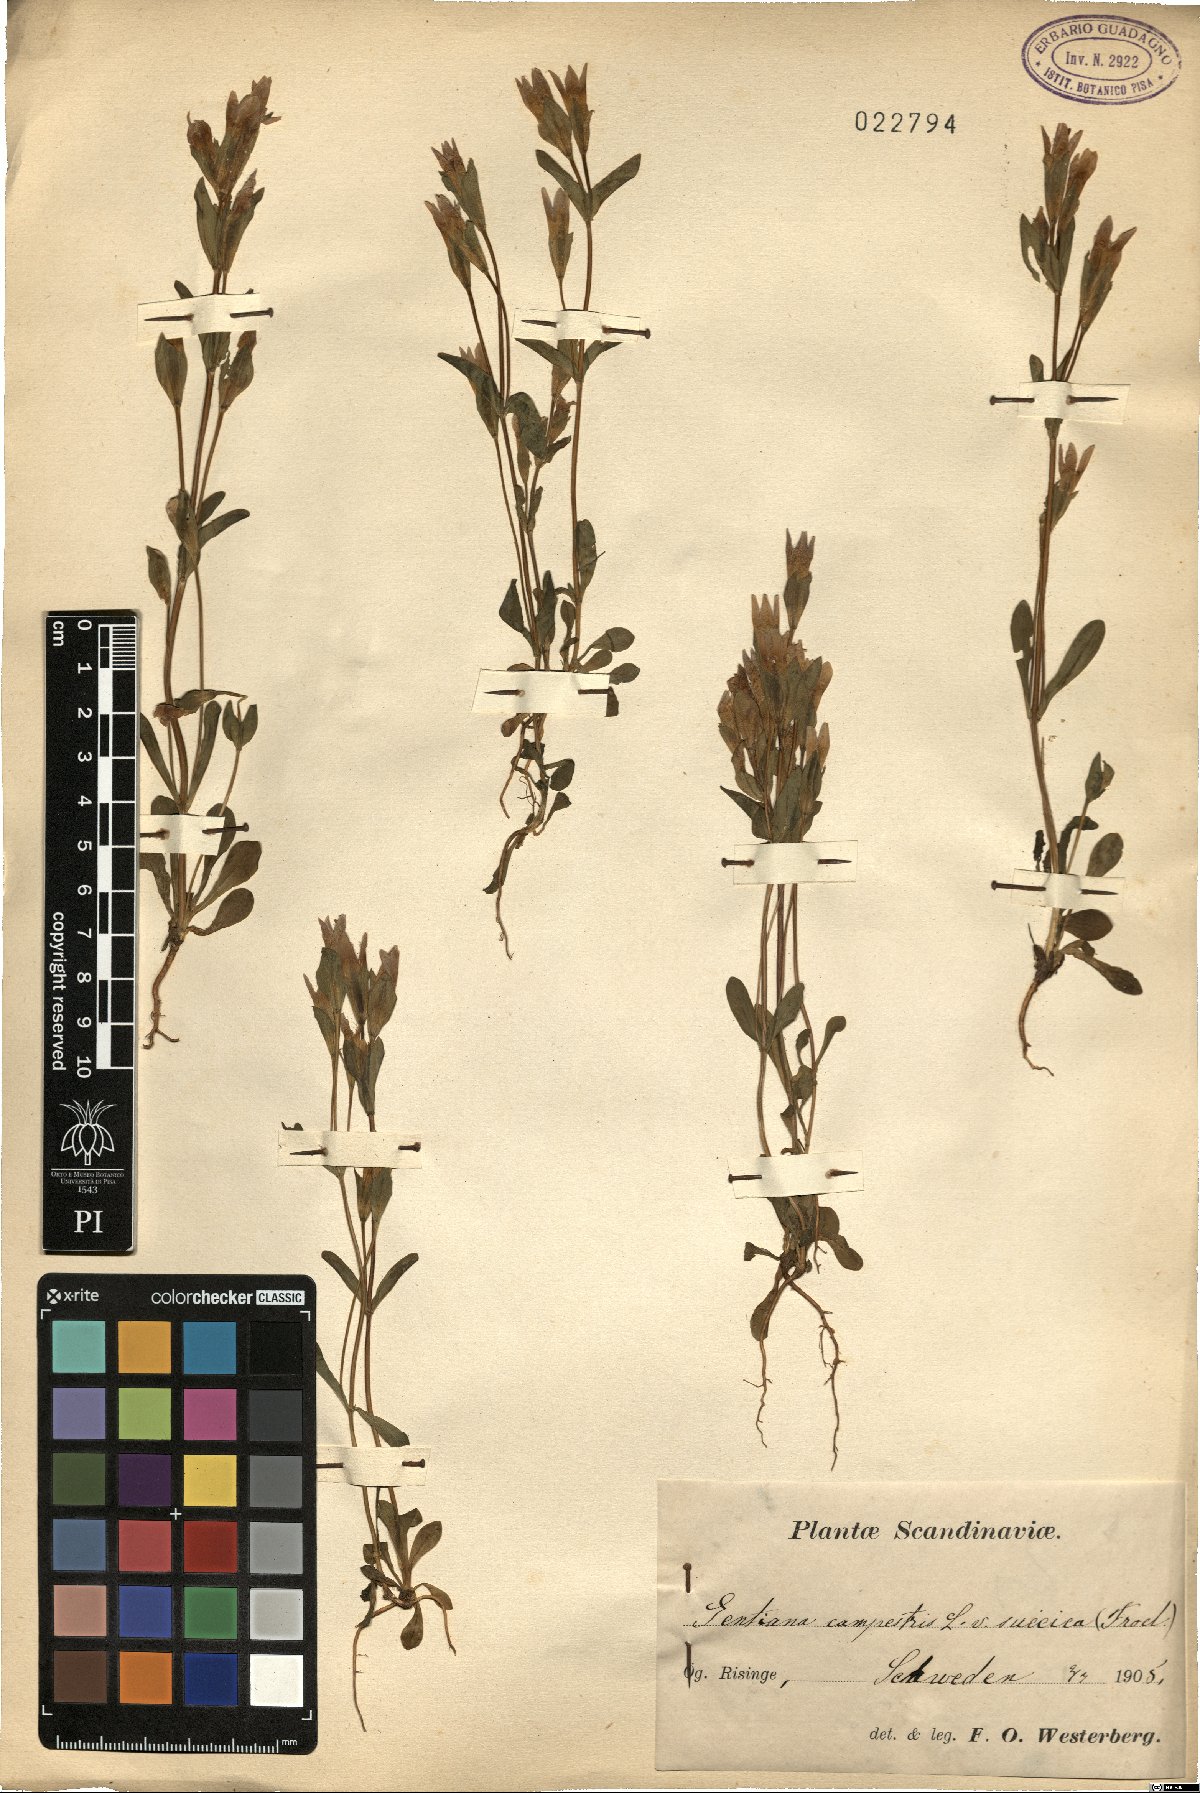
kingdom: Plantae
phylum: Tracheophyta
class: Magnoliopsida
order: Gentianales
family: Gentianaceae
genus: Gentianella
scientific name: Gentianella campestris
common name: Field gentian
